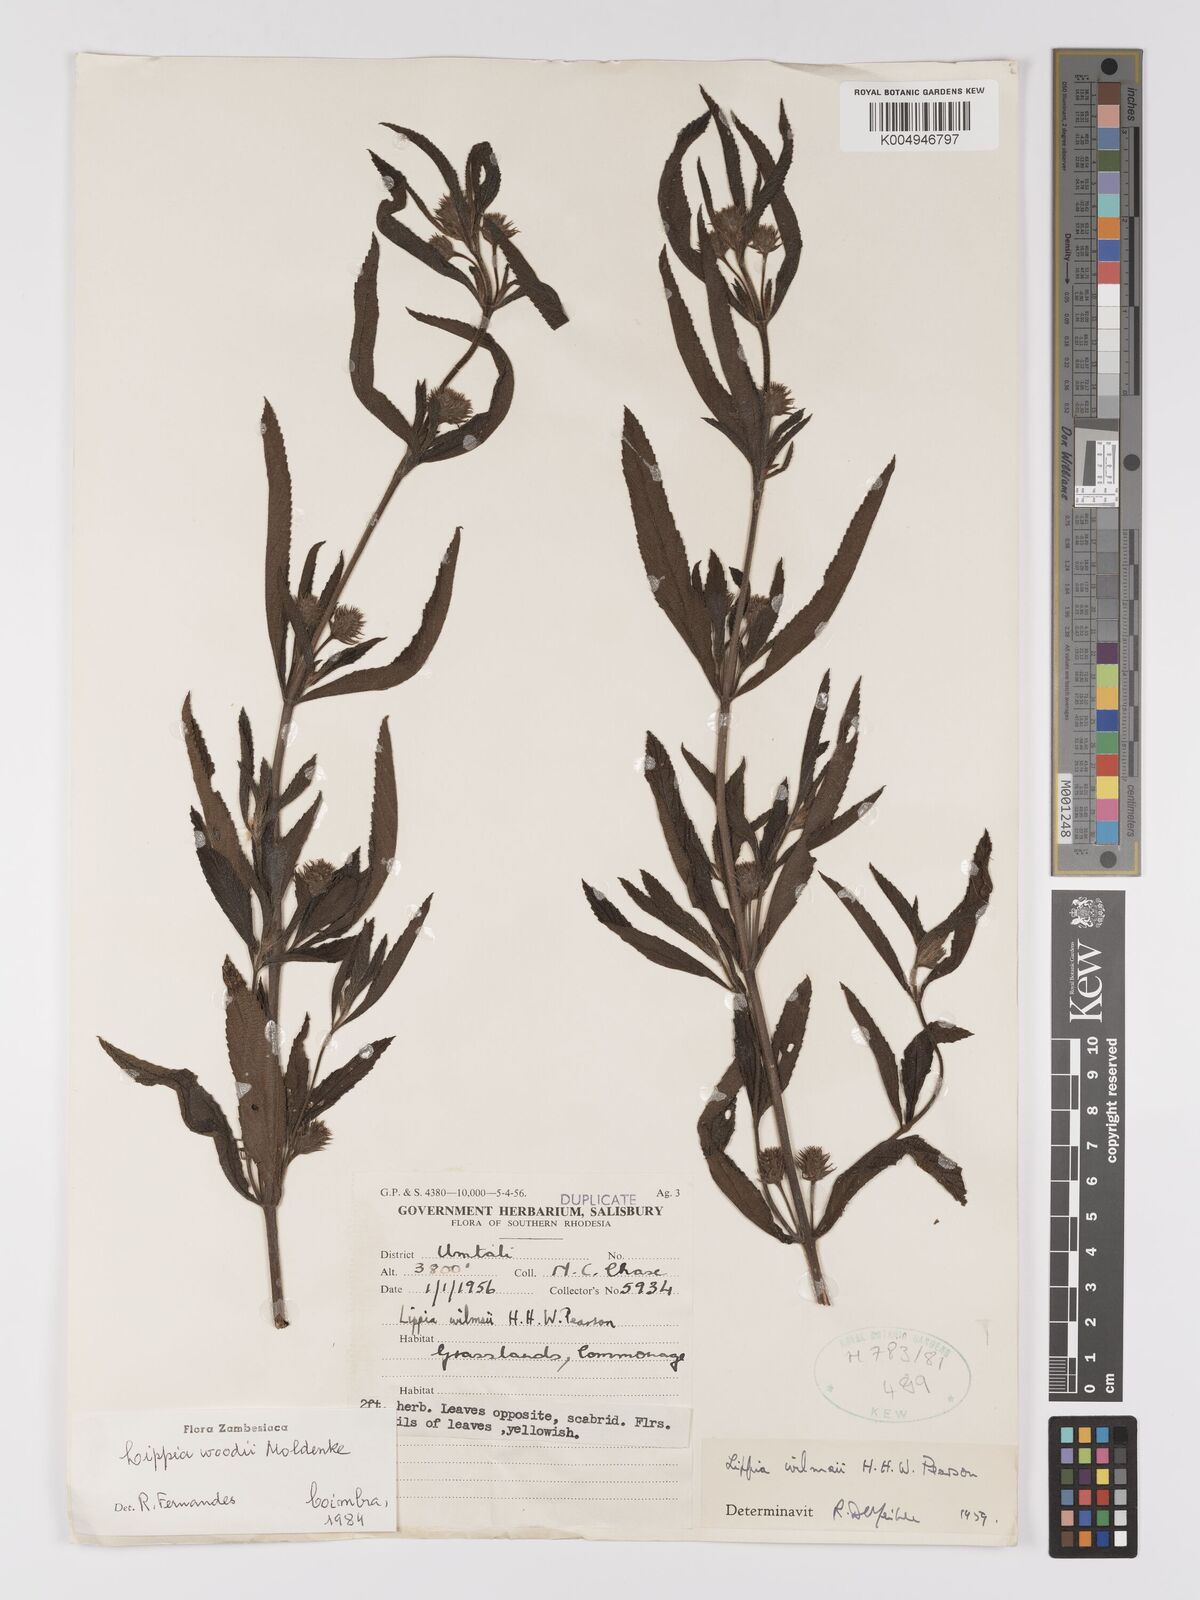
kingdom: Plantae
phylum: Tracheophyta
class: Magnoliopsida
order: Lamiales
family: Verbenaceae
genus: Lippia
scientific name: Lippia woodii
